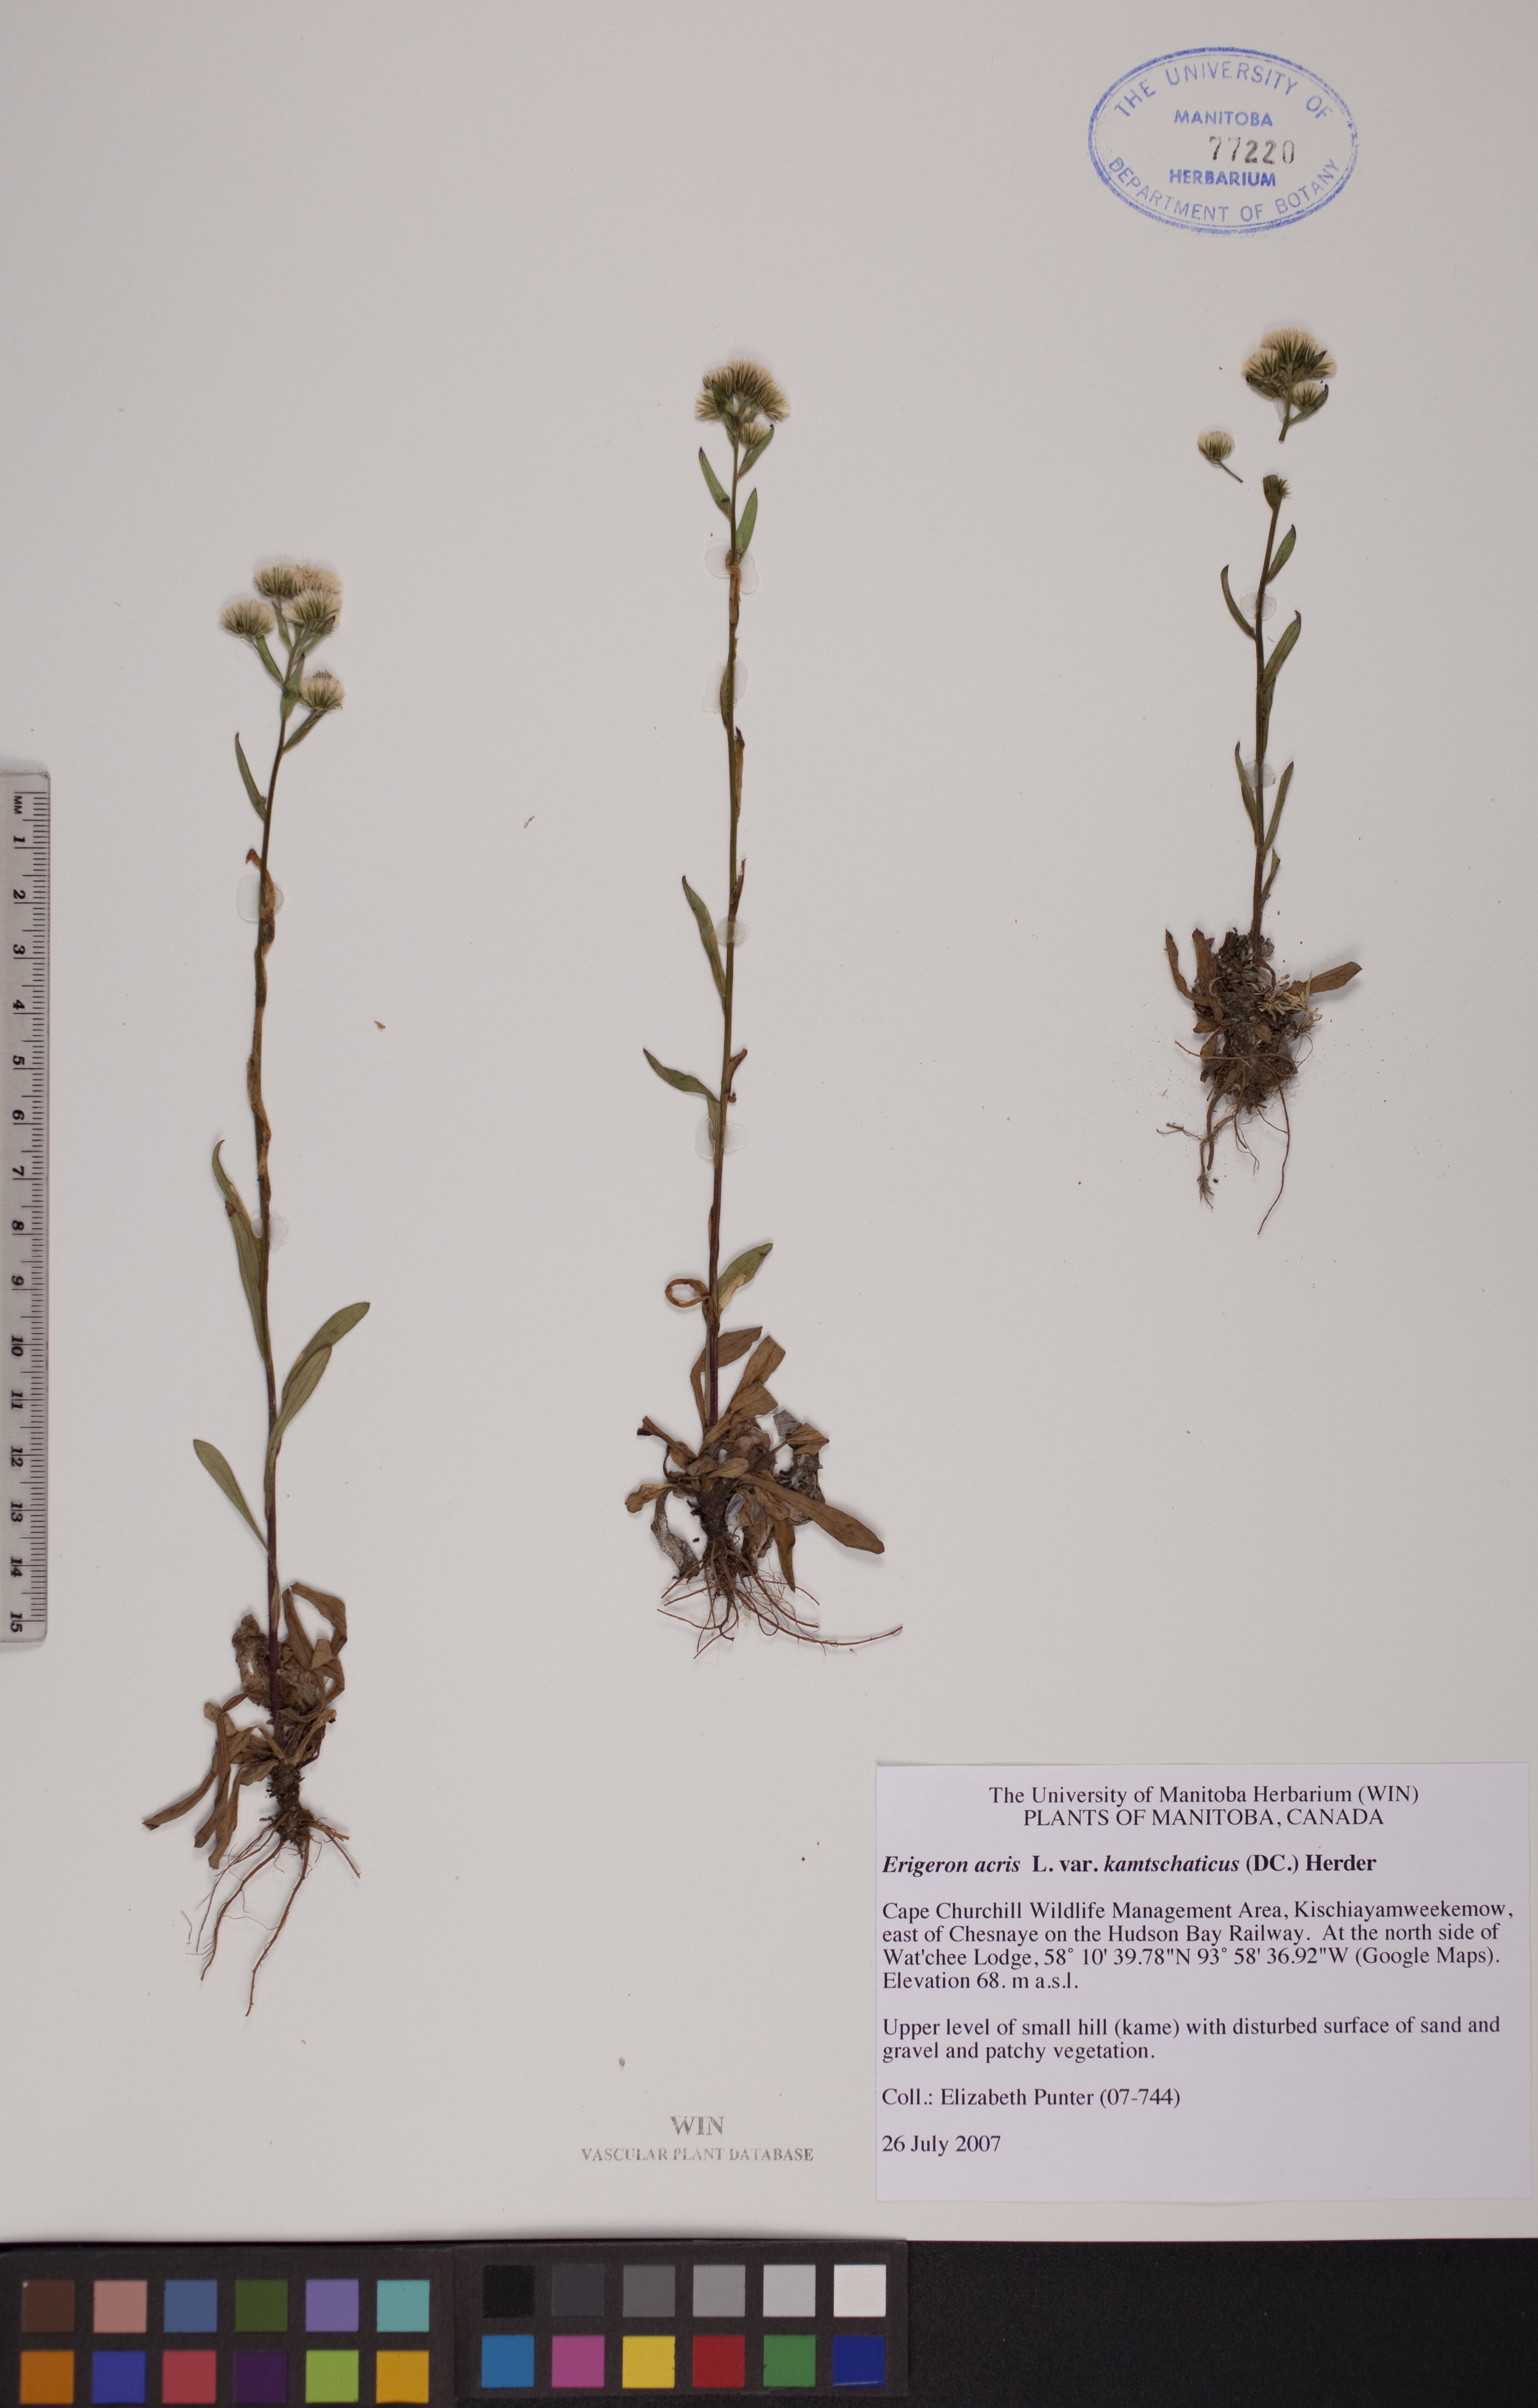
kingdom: Plantae
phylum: Tracheophyta
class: Magnoliopsida
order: Asterales
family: Asteraceae
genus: Erigeron
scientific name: Erigeron acris
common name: Blue fleabane
